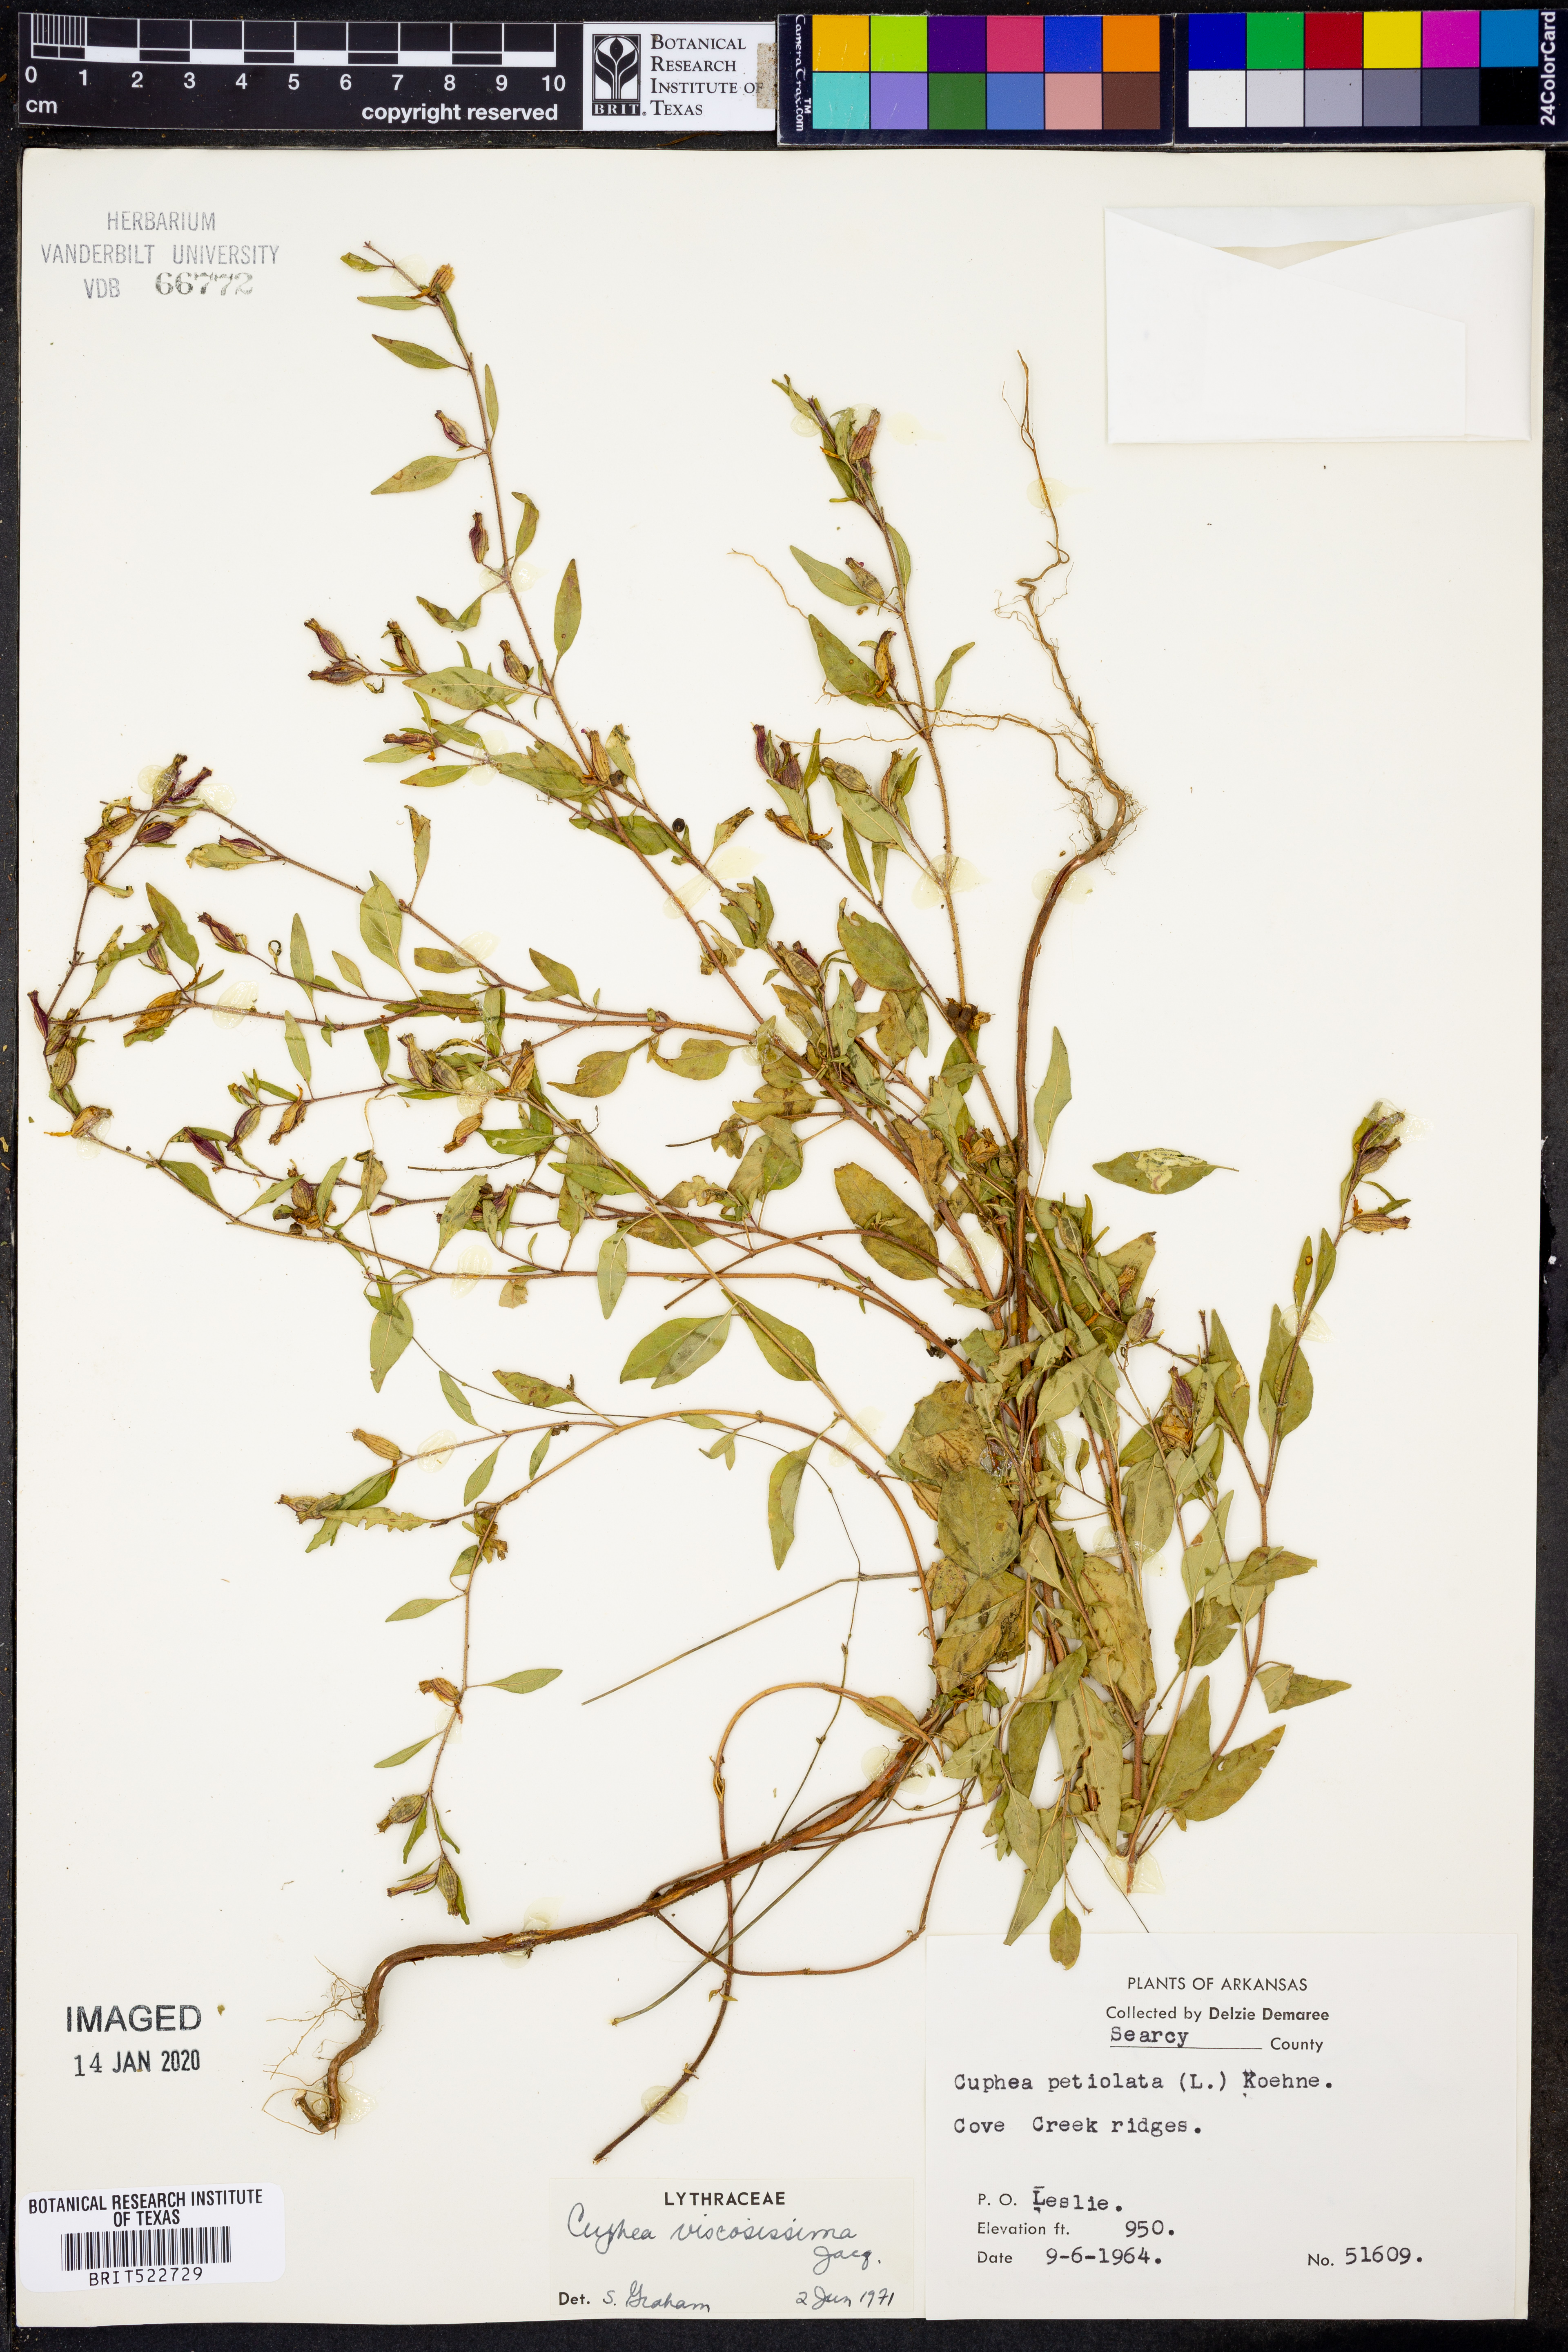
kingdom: Plantae
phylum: Tracheophyta
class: Magnoliopsida
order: Myrtales
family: Lythraceae
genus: Cuphea
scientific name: Cuphea viscosissima
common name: Clammy cuphea
